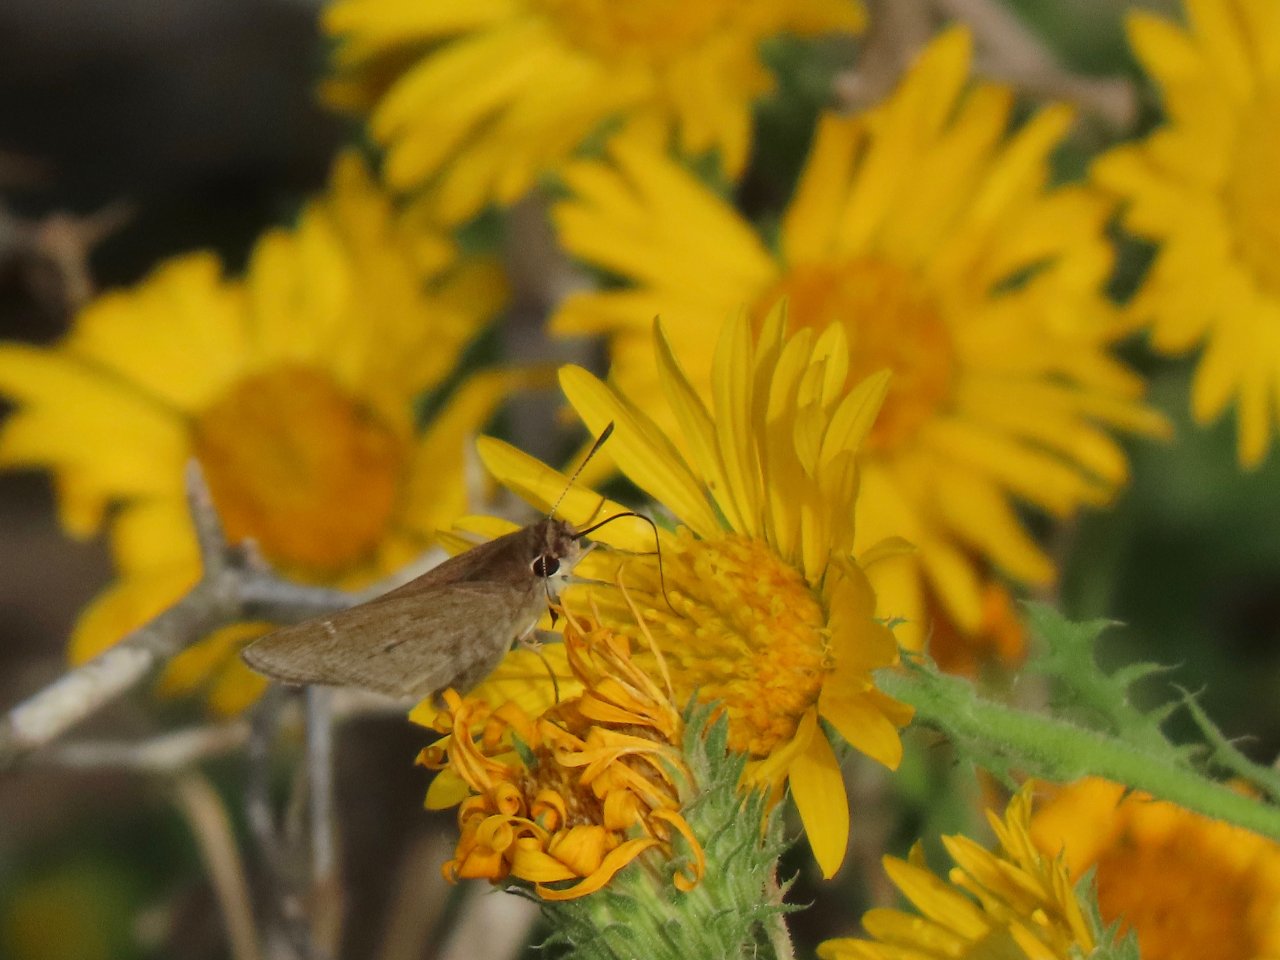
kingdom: Animalia
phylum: Arthropoda
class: Insecta
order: Lepidoptera
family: Hesperiidae
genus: Lerodea
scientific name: Lerodea eufala
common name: Eufala Skipper
